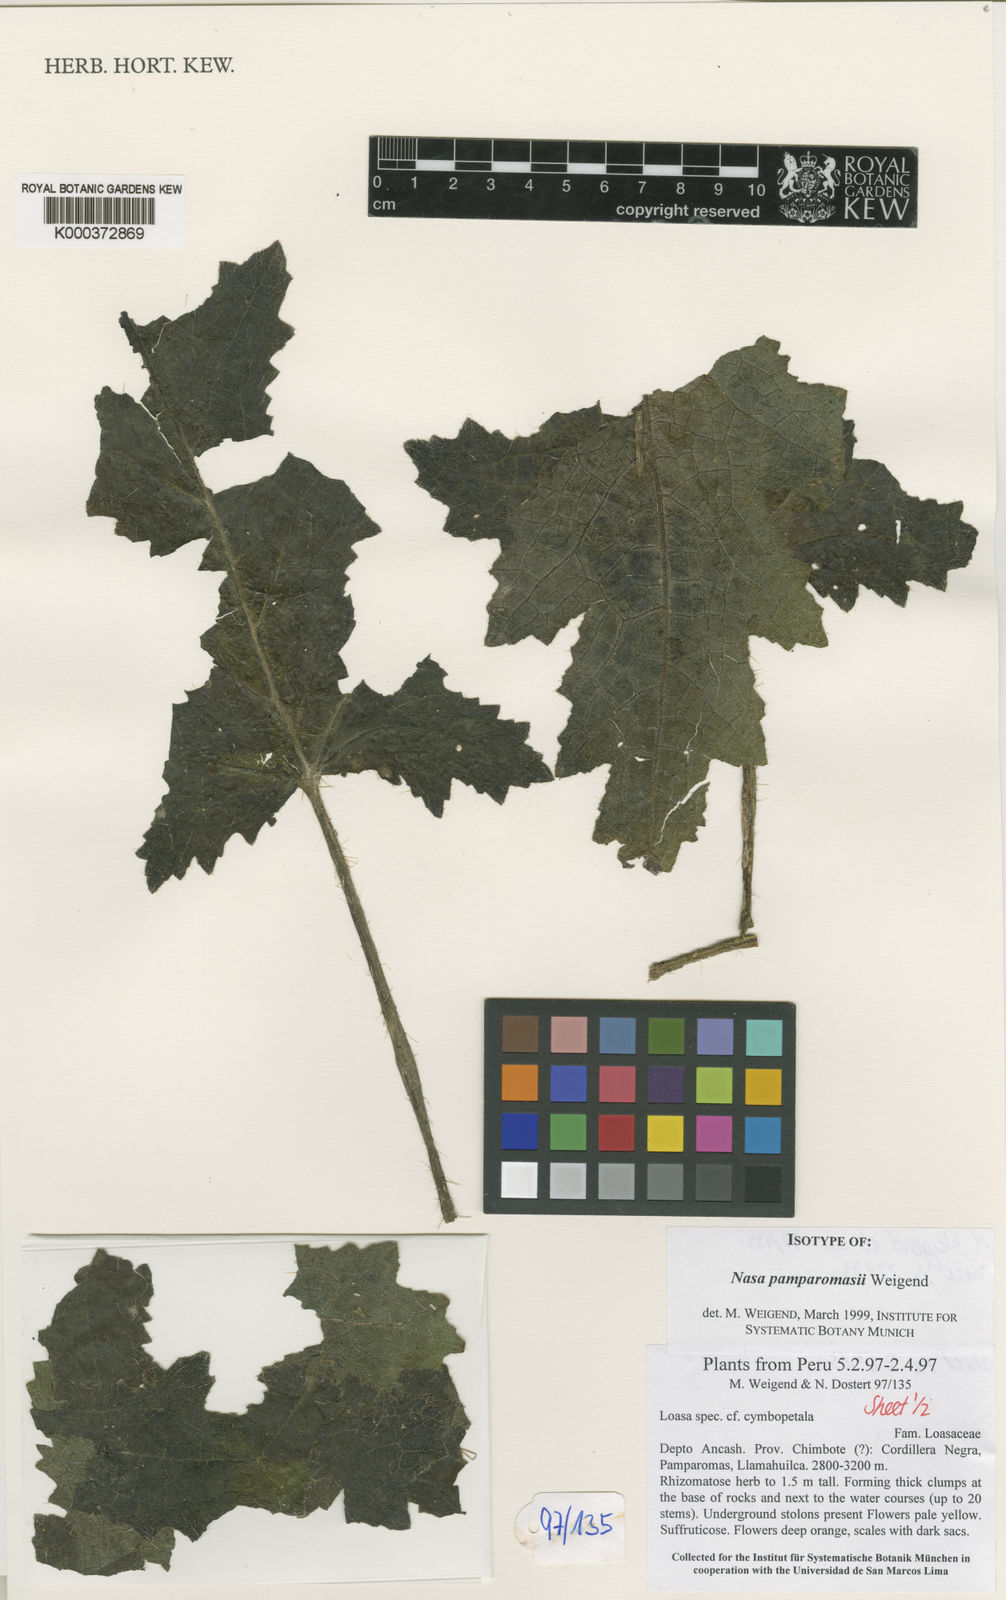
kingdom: Plantae
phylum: Tracheophyta
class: Magnoliopsida
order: Cornales
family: Loasaceae
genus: Nasa
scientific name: Nasa
